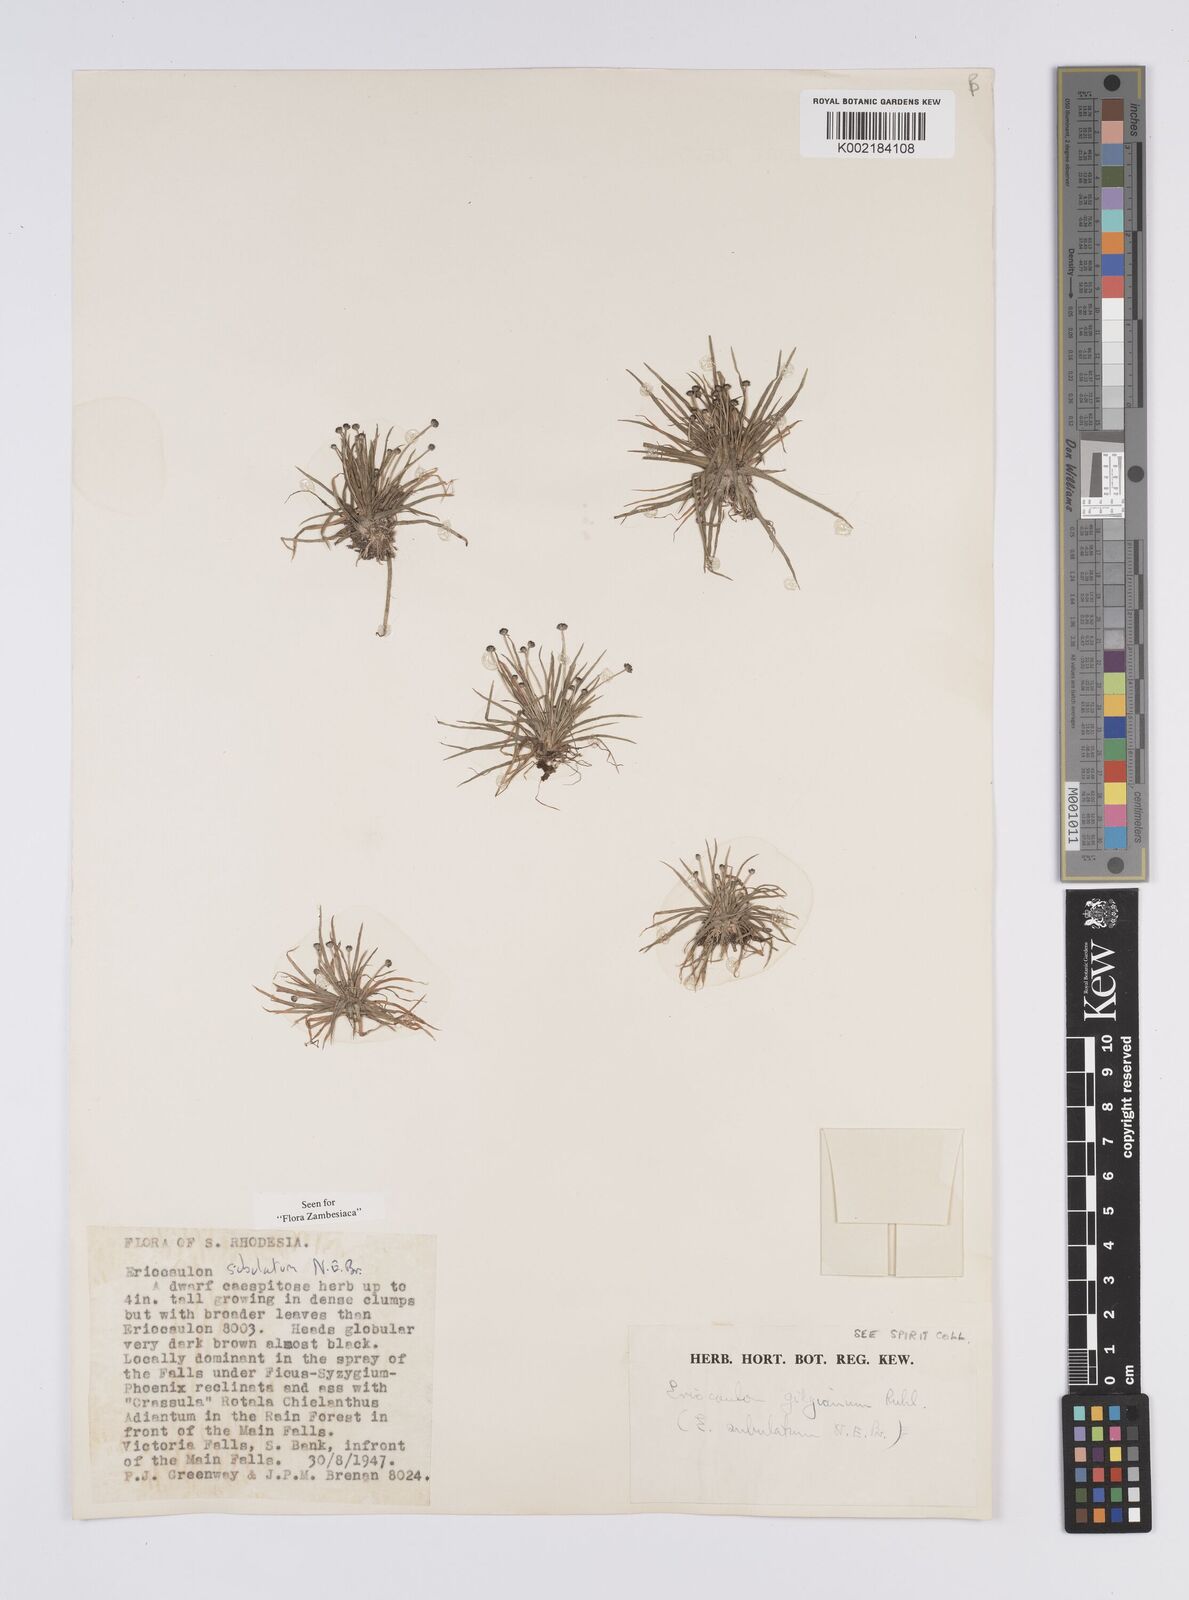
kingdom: Plantae
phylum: Tracheophyta
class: Liliopsida
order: Poales
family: Eriocaulaceae
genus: Eriocaulon
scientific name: Eriocaulon abyssinicum
